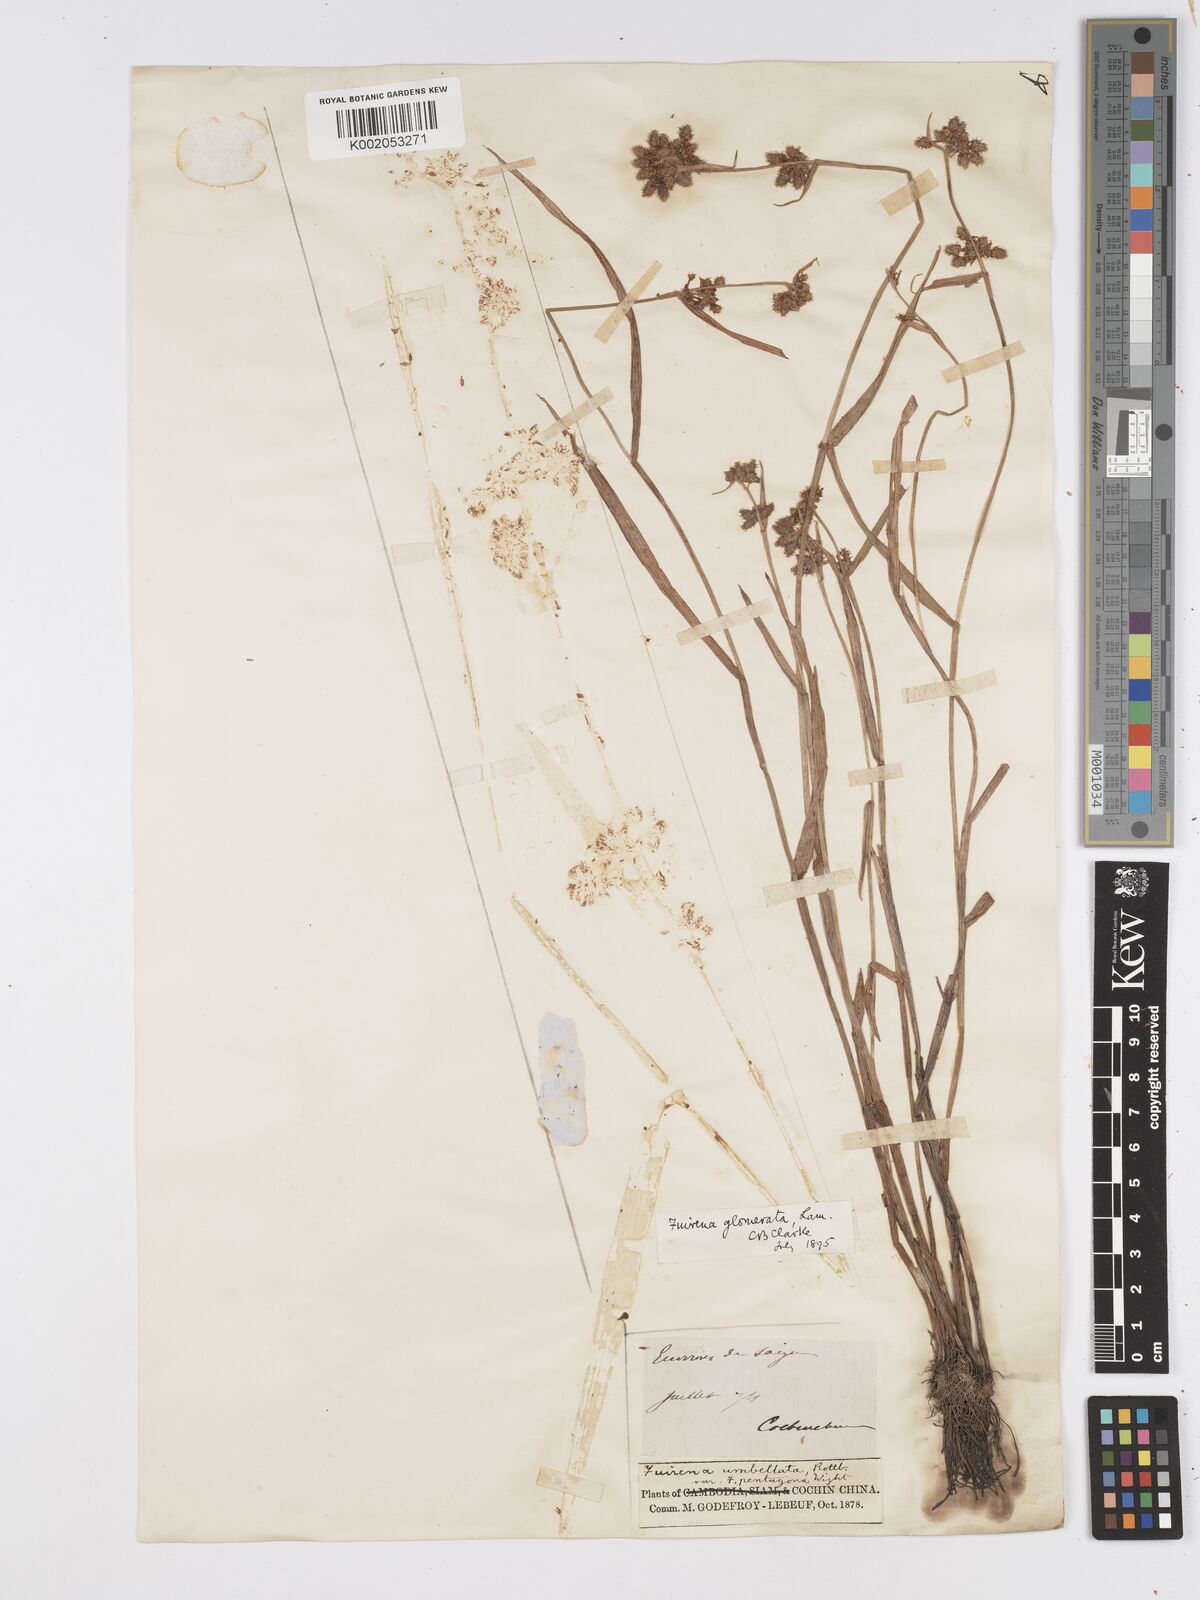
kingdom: Plantae
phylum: Tracheophyta
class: Liliopsida
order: Poales
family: Cyperaceae
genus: Fuirena
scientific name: Fuirena ciliaris
